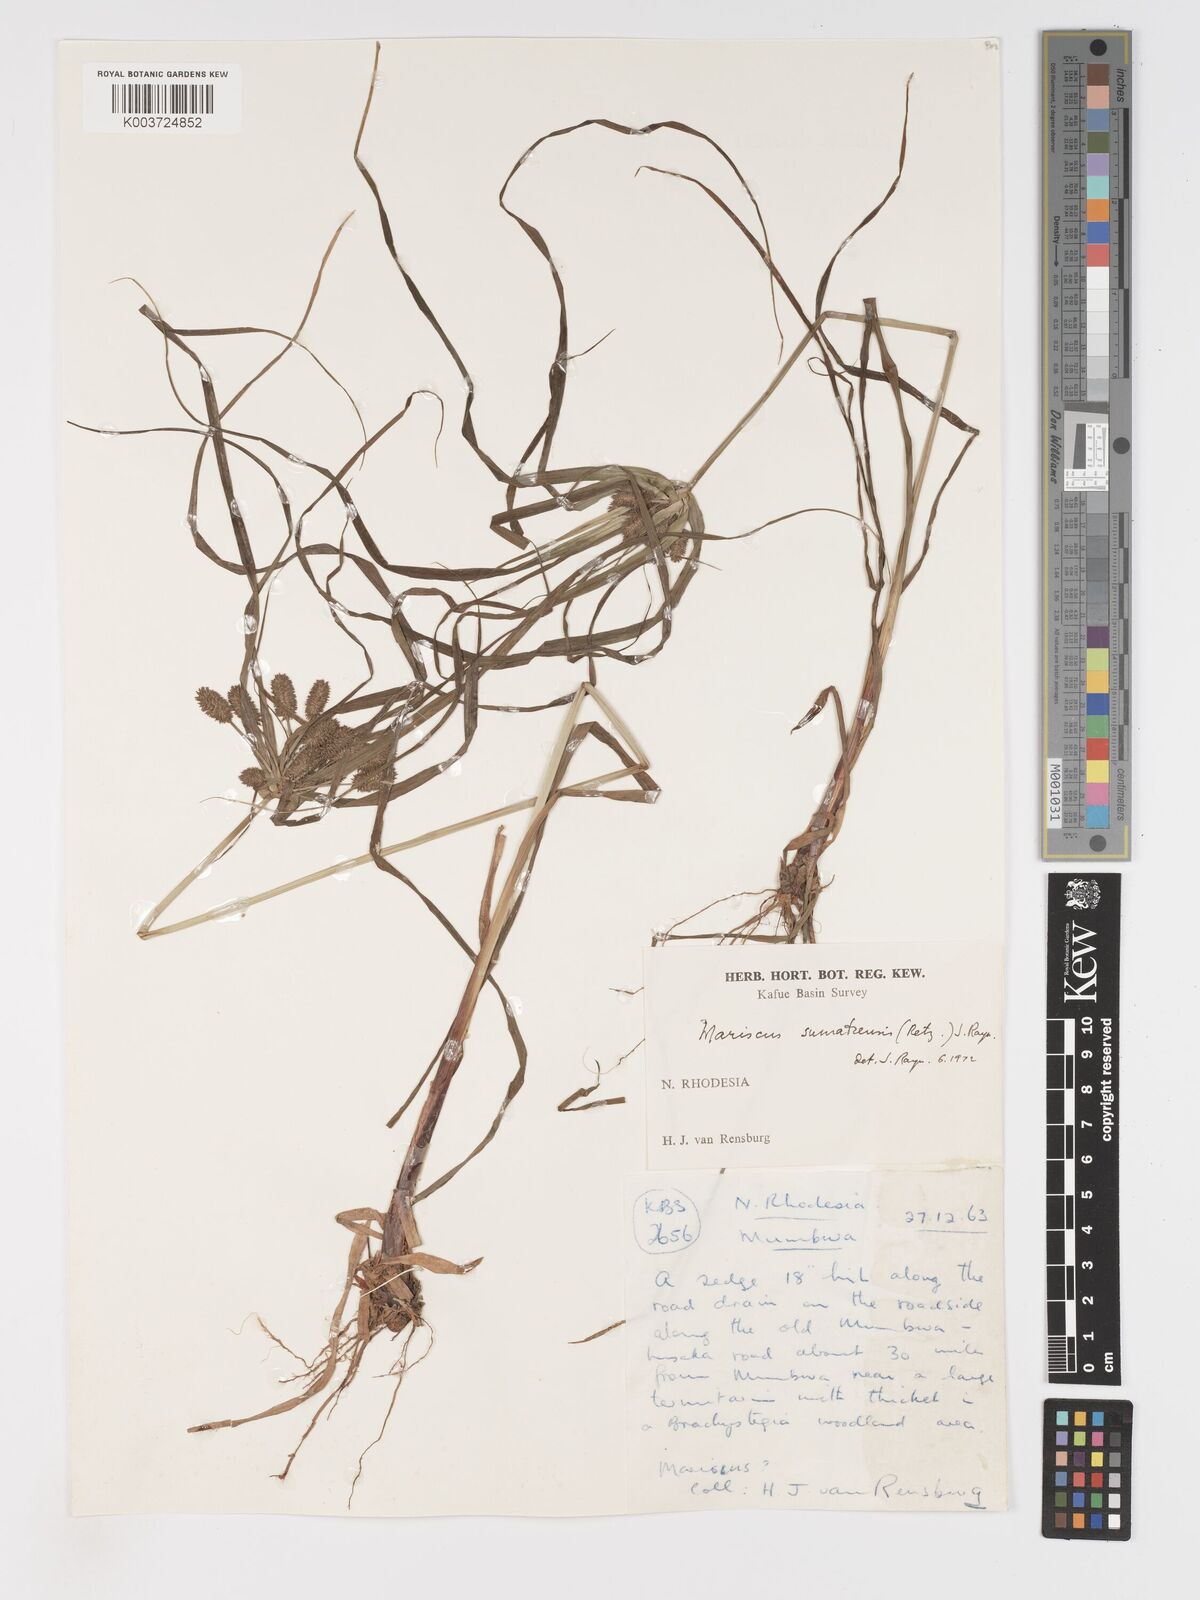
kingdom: Plantae
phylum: Tracheophyta
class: Liliopsida
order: Poales
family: Cyperaceae
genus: Cyperus
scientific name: Cyperus cyperoides
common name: Pacific island flat sedge
